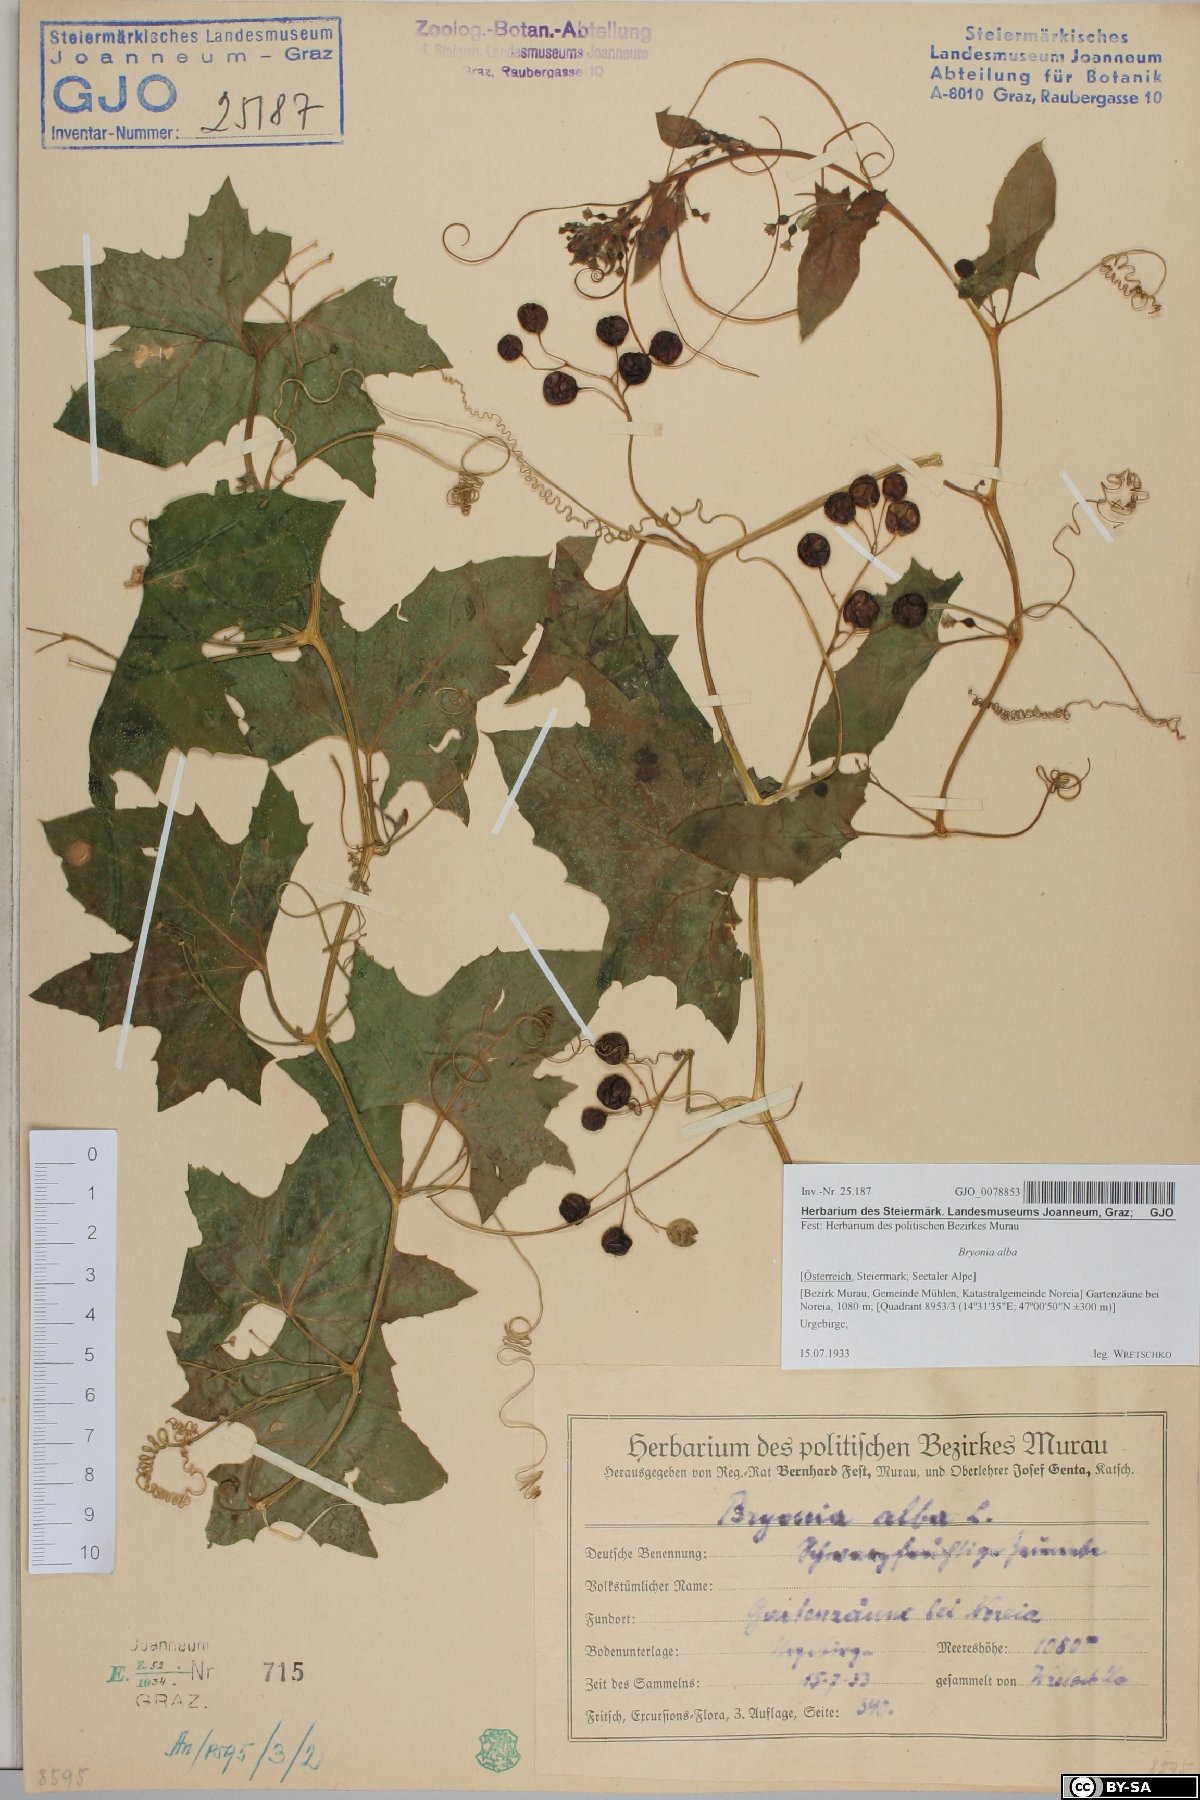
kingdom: Plantae
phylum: Tracheophyta
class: Magnoliopsida
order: Cucurbitales
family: Cucurbitaceae
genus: Bryonia
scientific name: Bryonia alba
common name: White bryony
